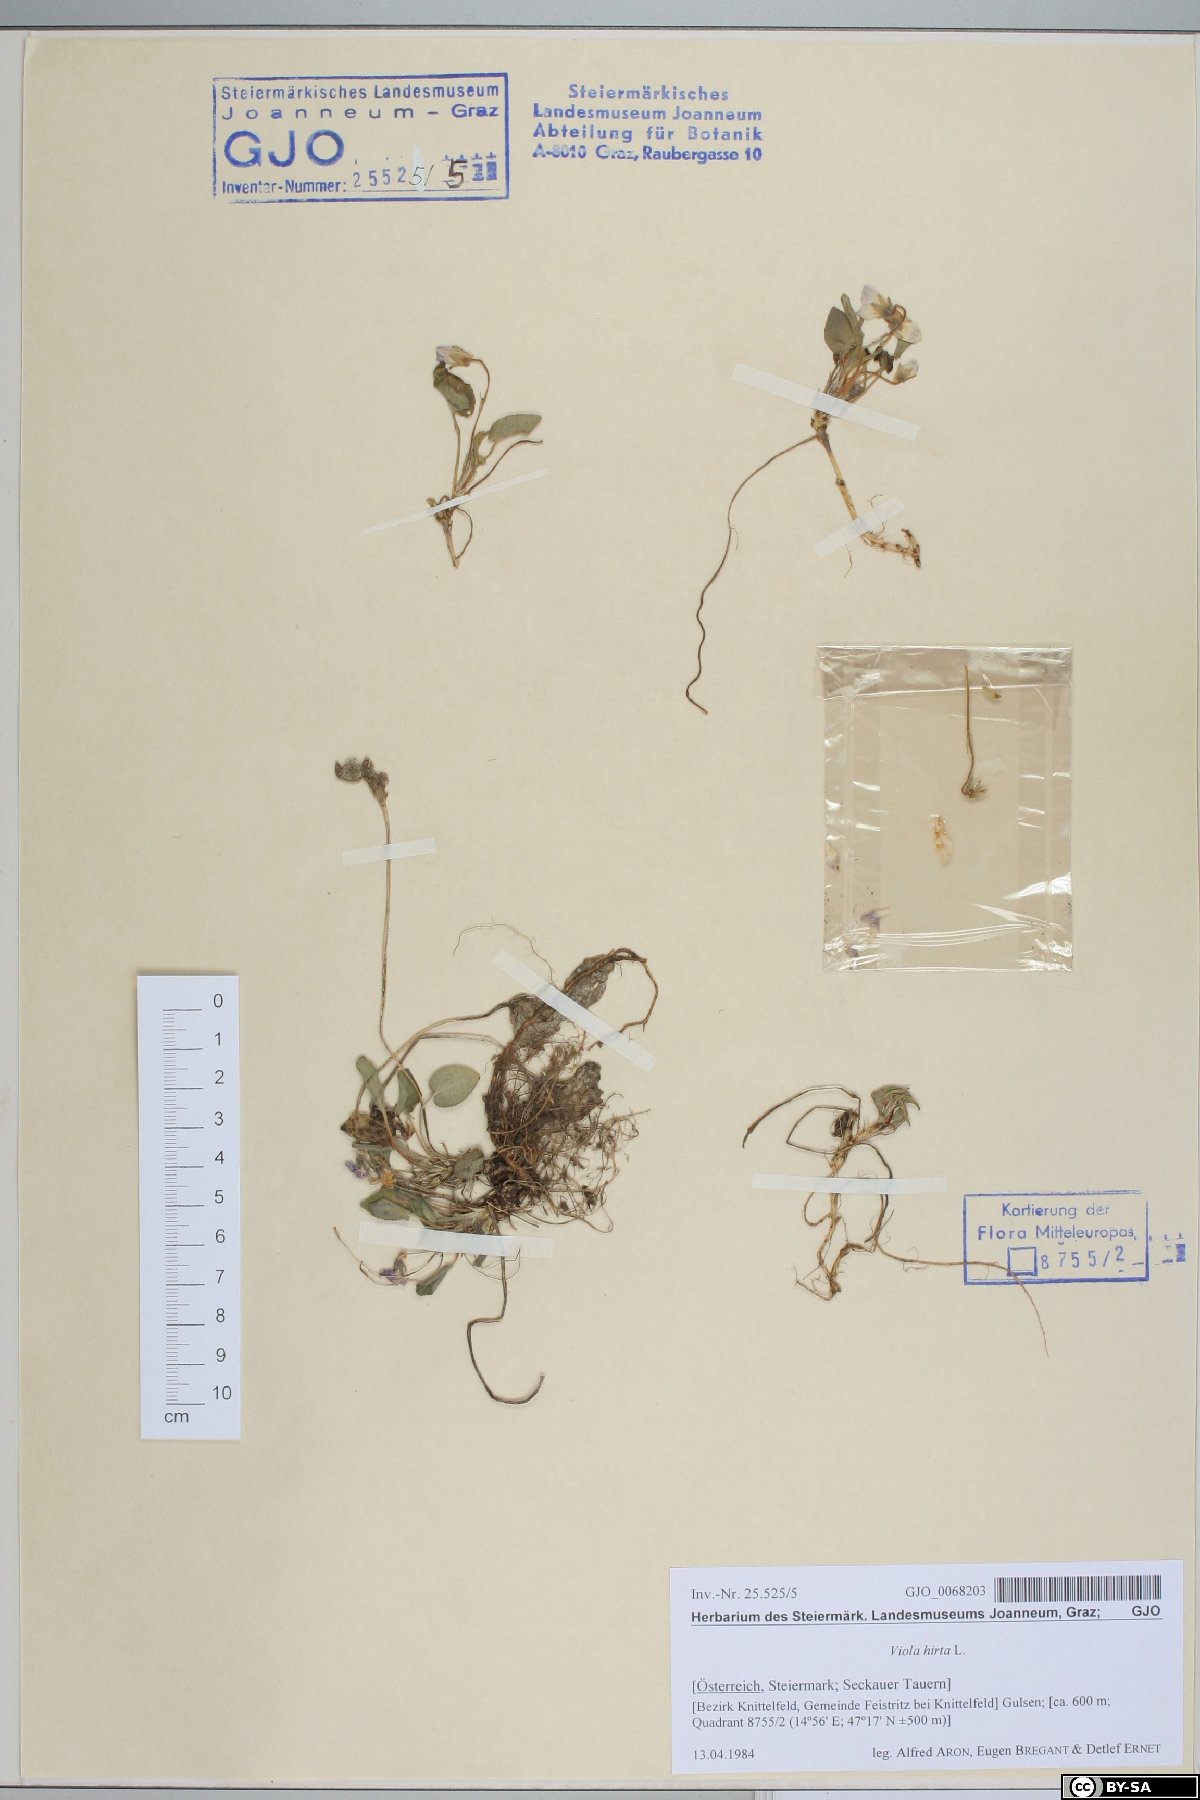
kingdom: Plantae
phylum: Tracheophyta
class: Magnoliopsida
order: Malpighiales
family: Violaceae
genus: Viola
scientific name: Viola hirta
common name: Hairy violet
